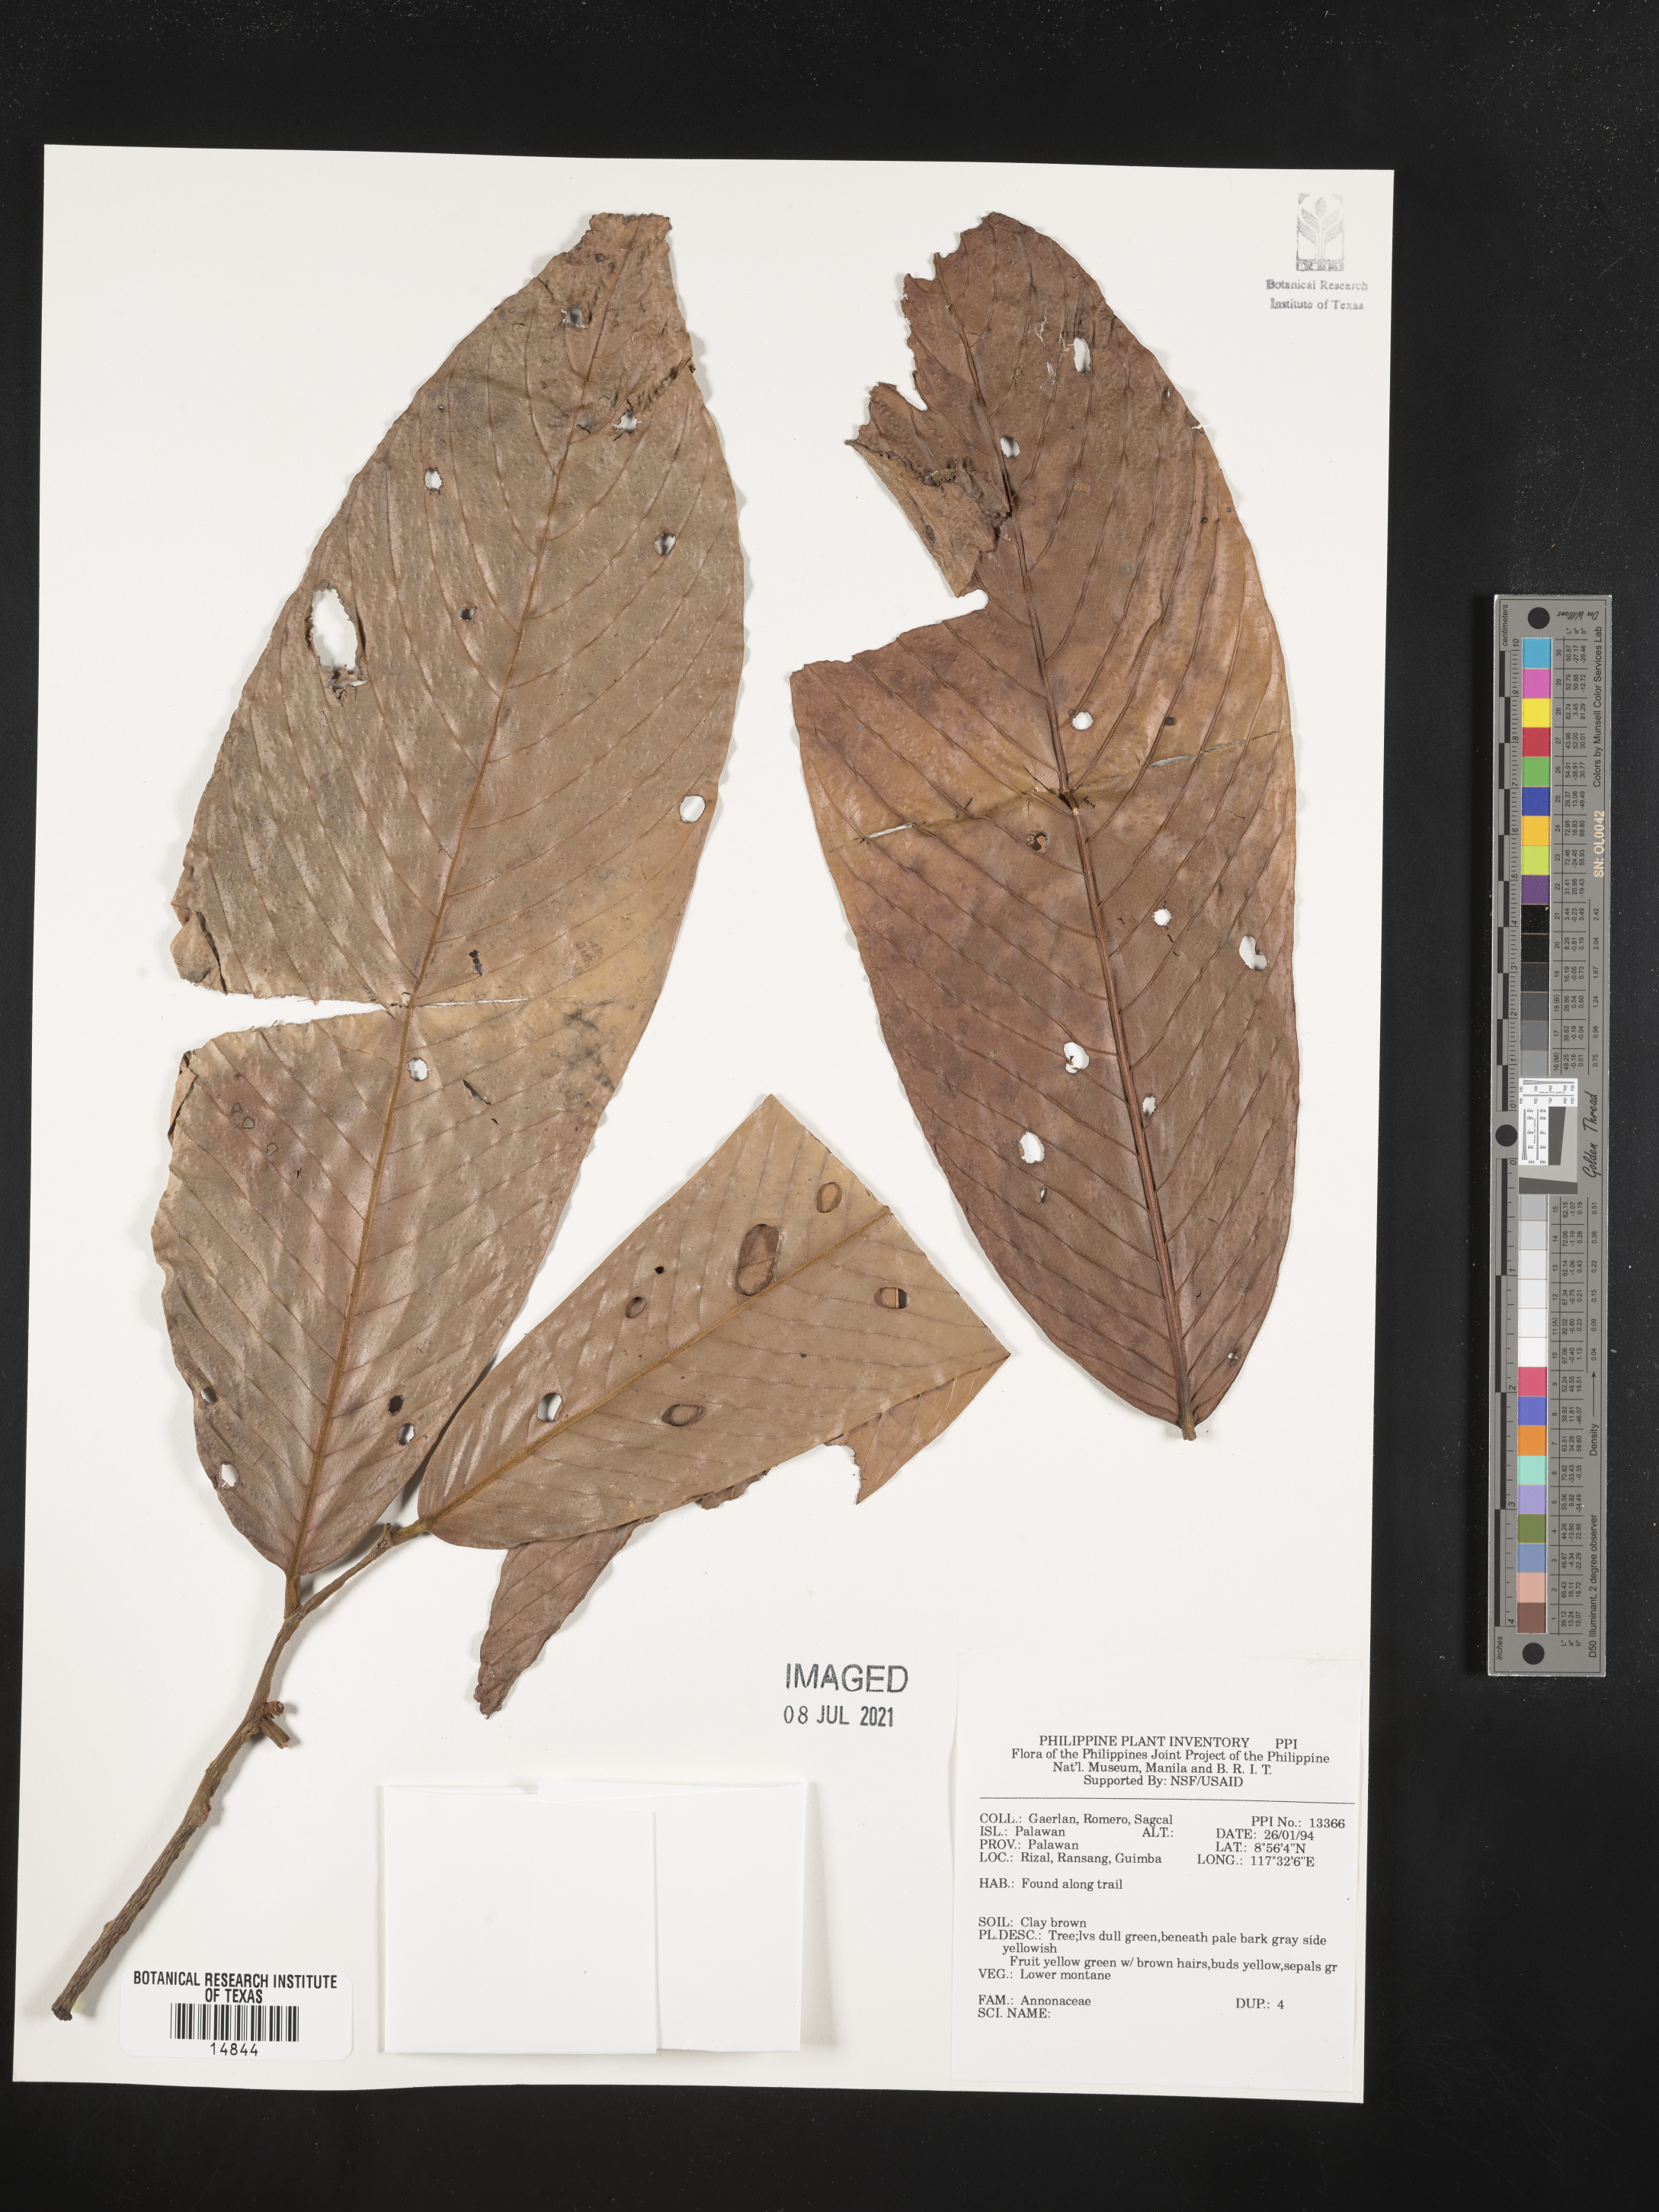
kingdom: Plantae
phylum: Tracheophyta
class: Magnoliopsida
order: Magnoliales
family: Annonaceae
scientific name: Annonaceae
